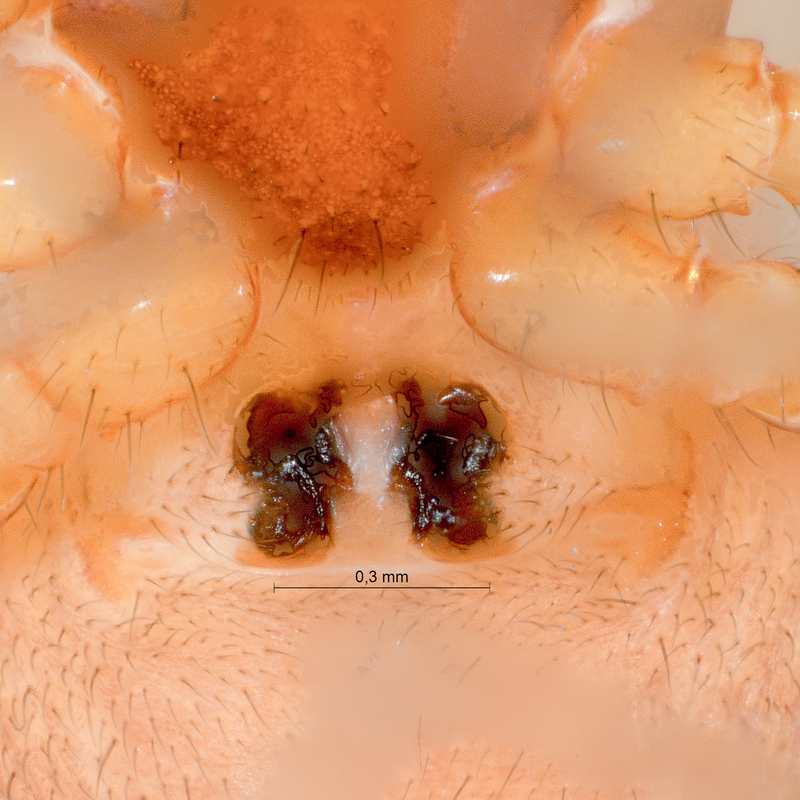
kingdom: Animalia
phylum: Arthropoda
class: Arachnida
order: Araneae
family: Linyphiidae
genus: Gonatium
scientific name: Gonatium rubellum
